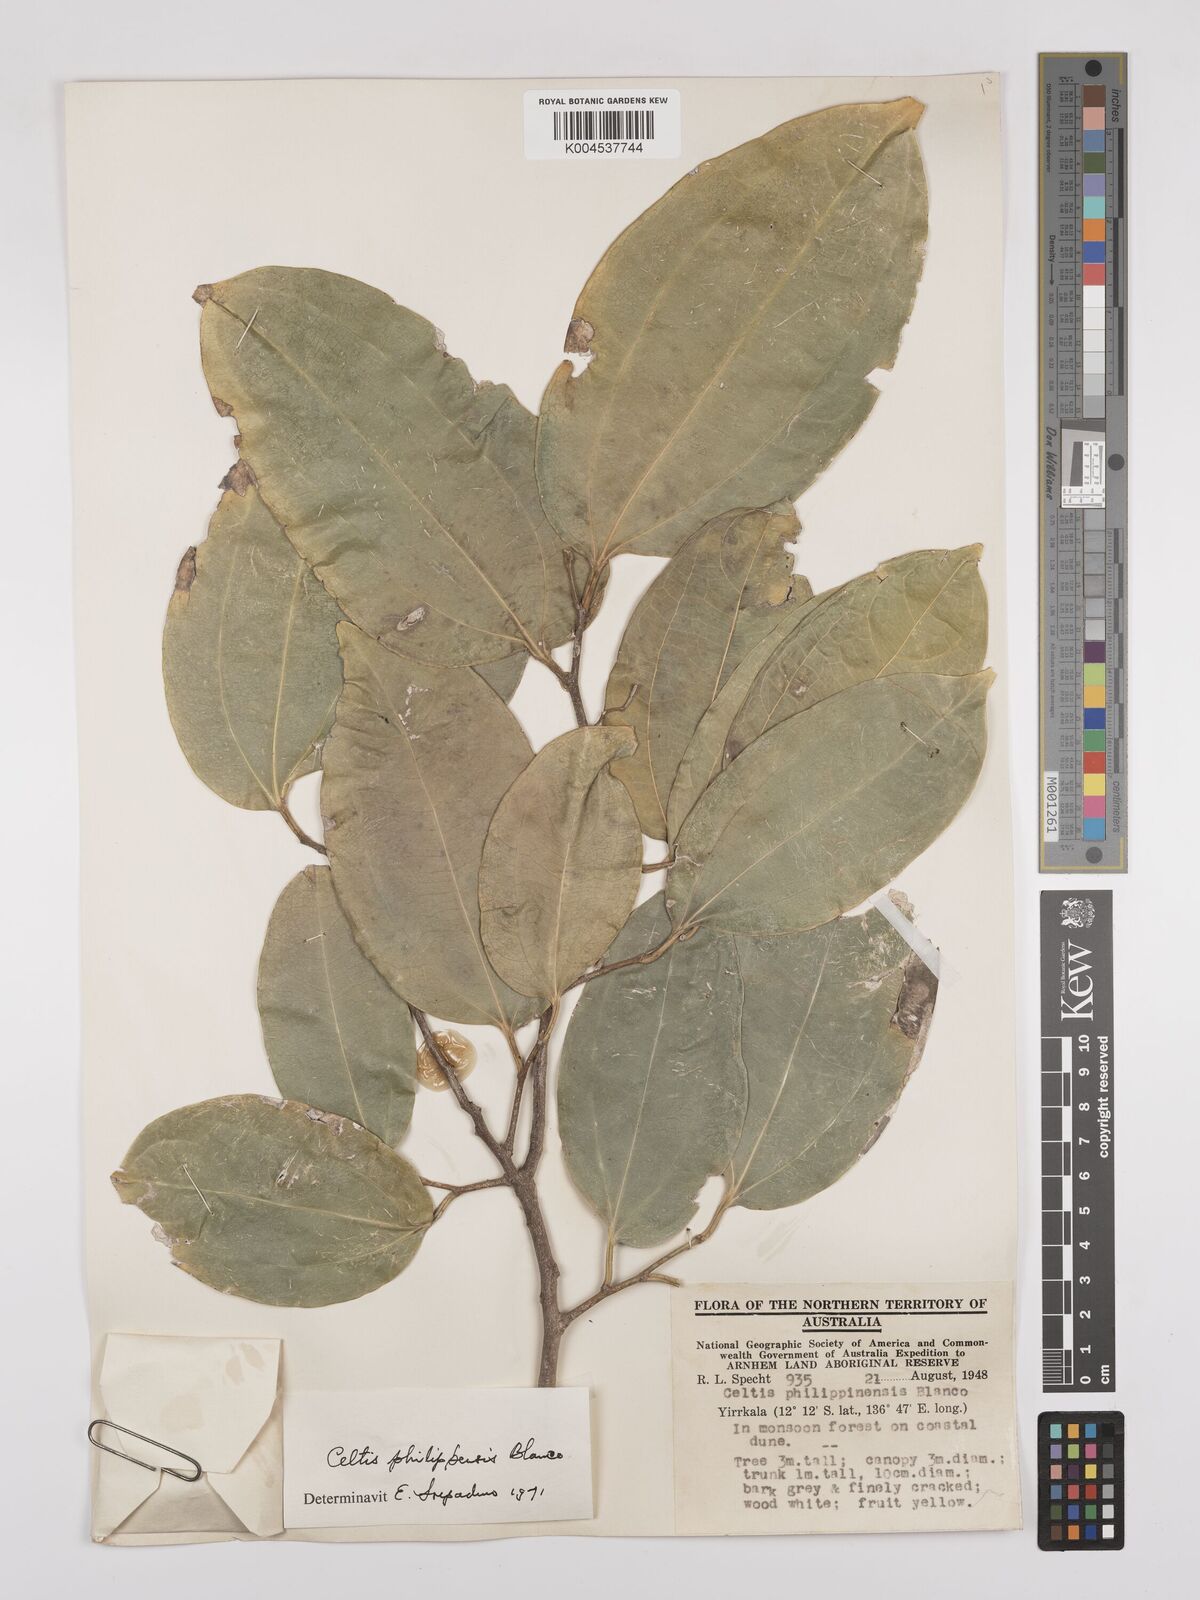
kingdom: Plantae
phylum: Tracheophyta
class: Magnoliopsida
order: Rosales
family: Cannabaceae
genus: Celtis
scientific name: Celtis philippensis
